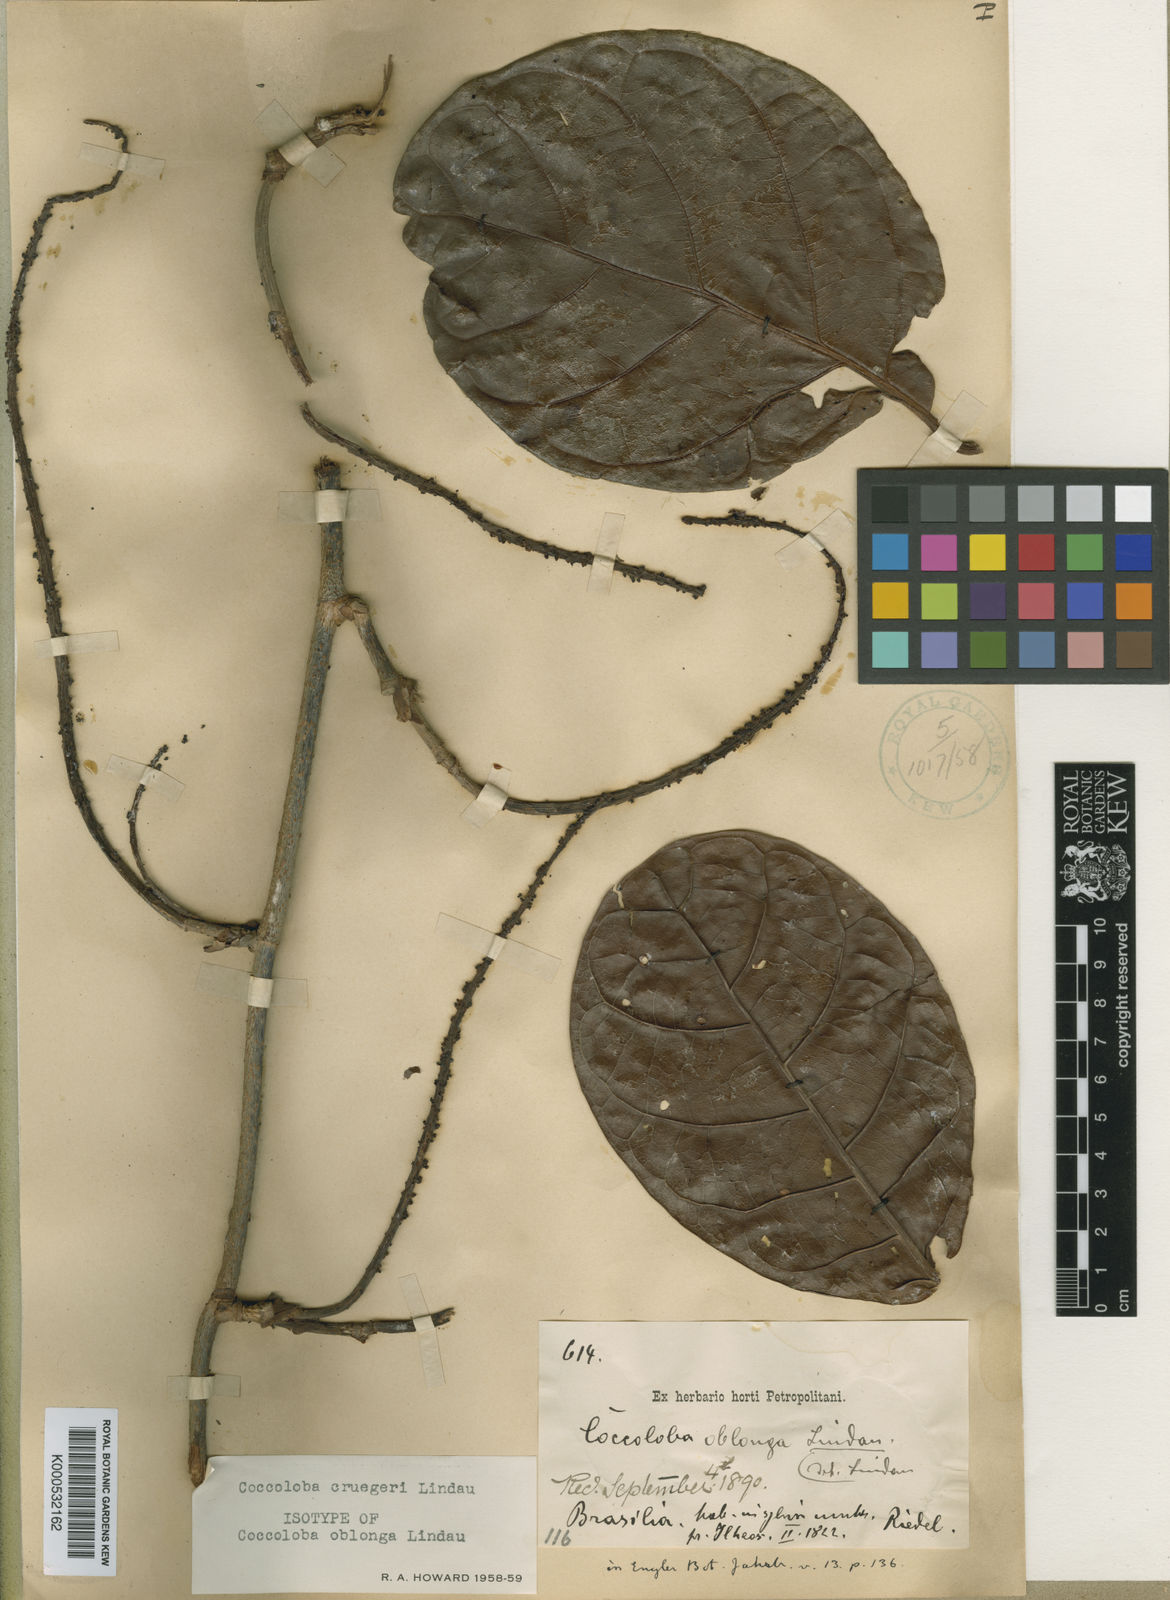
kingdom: Plantae
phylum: Tracheophyta
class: Magnoliopsida
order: Caryophyllales
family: Polygonaceae
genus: Coccoloba
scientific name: Coccoloba cruegeri
